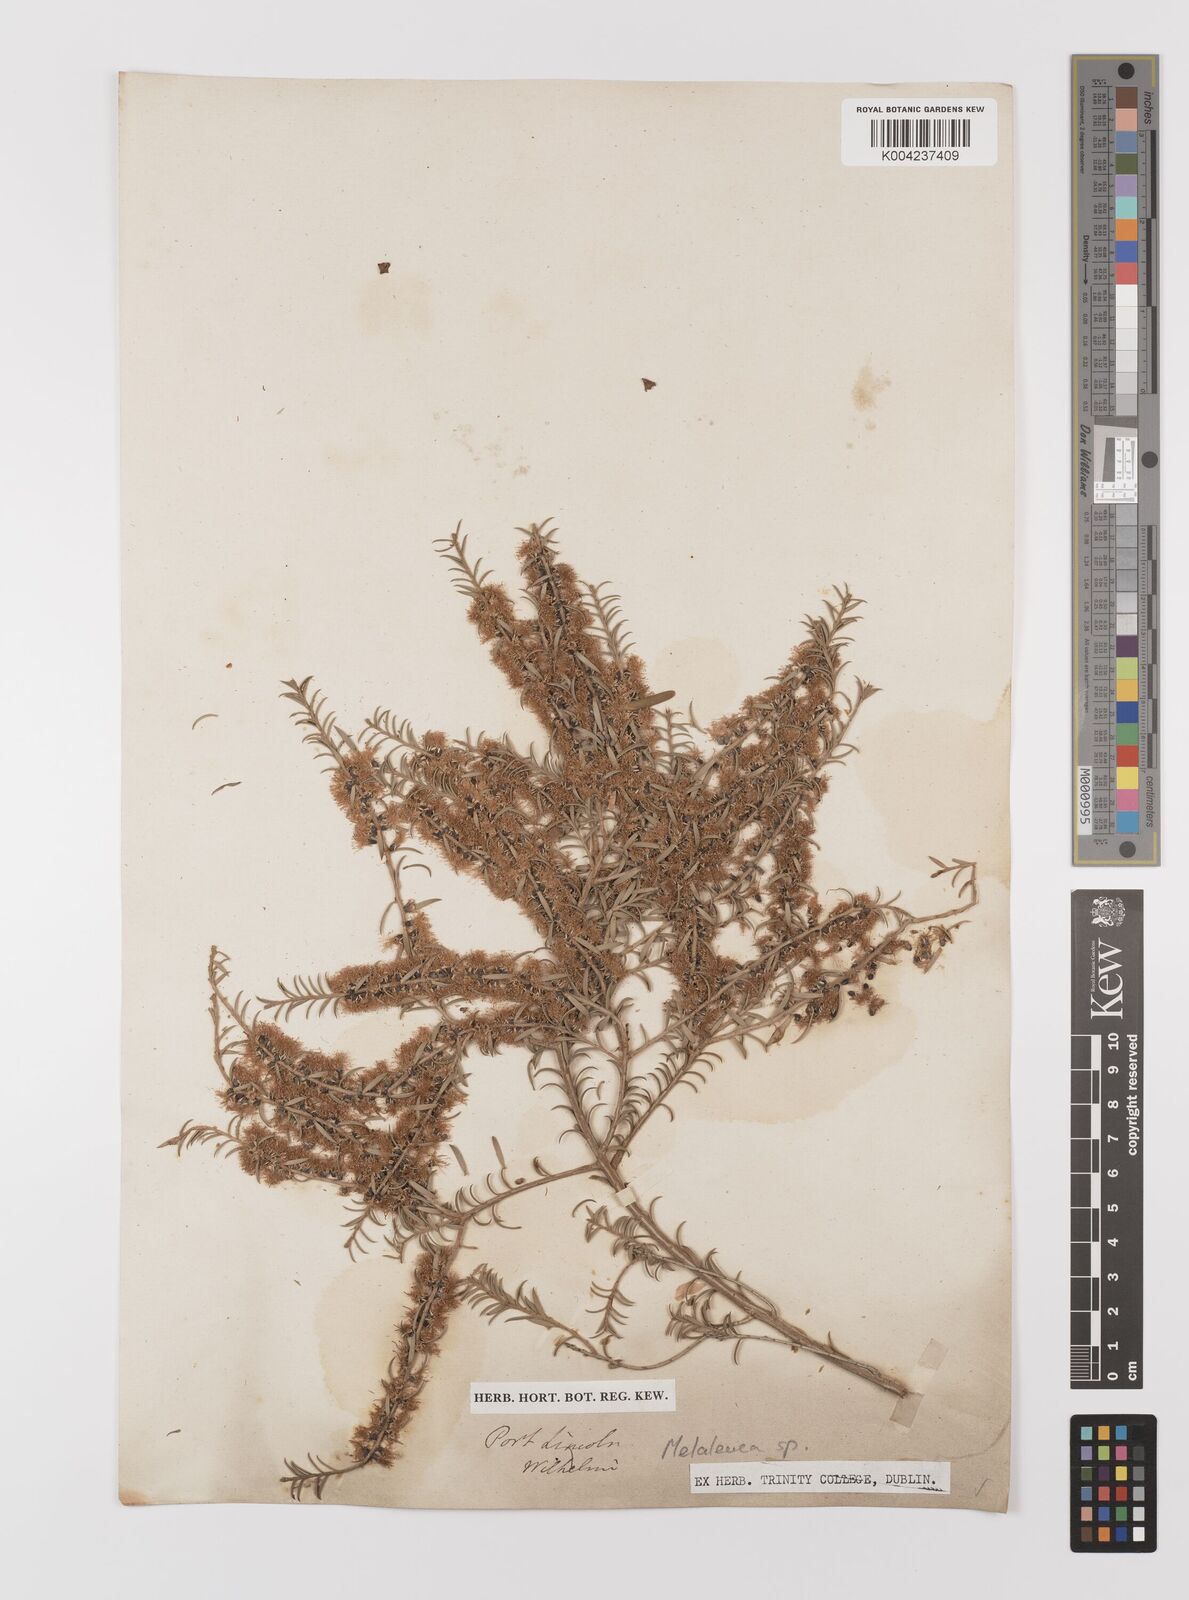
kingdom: Plantae
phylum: Tracheophyta
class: Magnoliopsida
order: Myrtales
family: Myrtaceae
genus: Melaleuca
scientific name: Melaleuca
